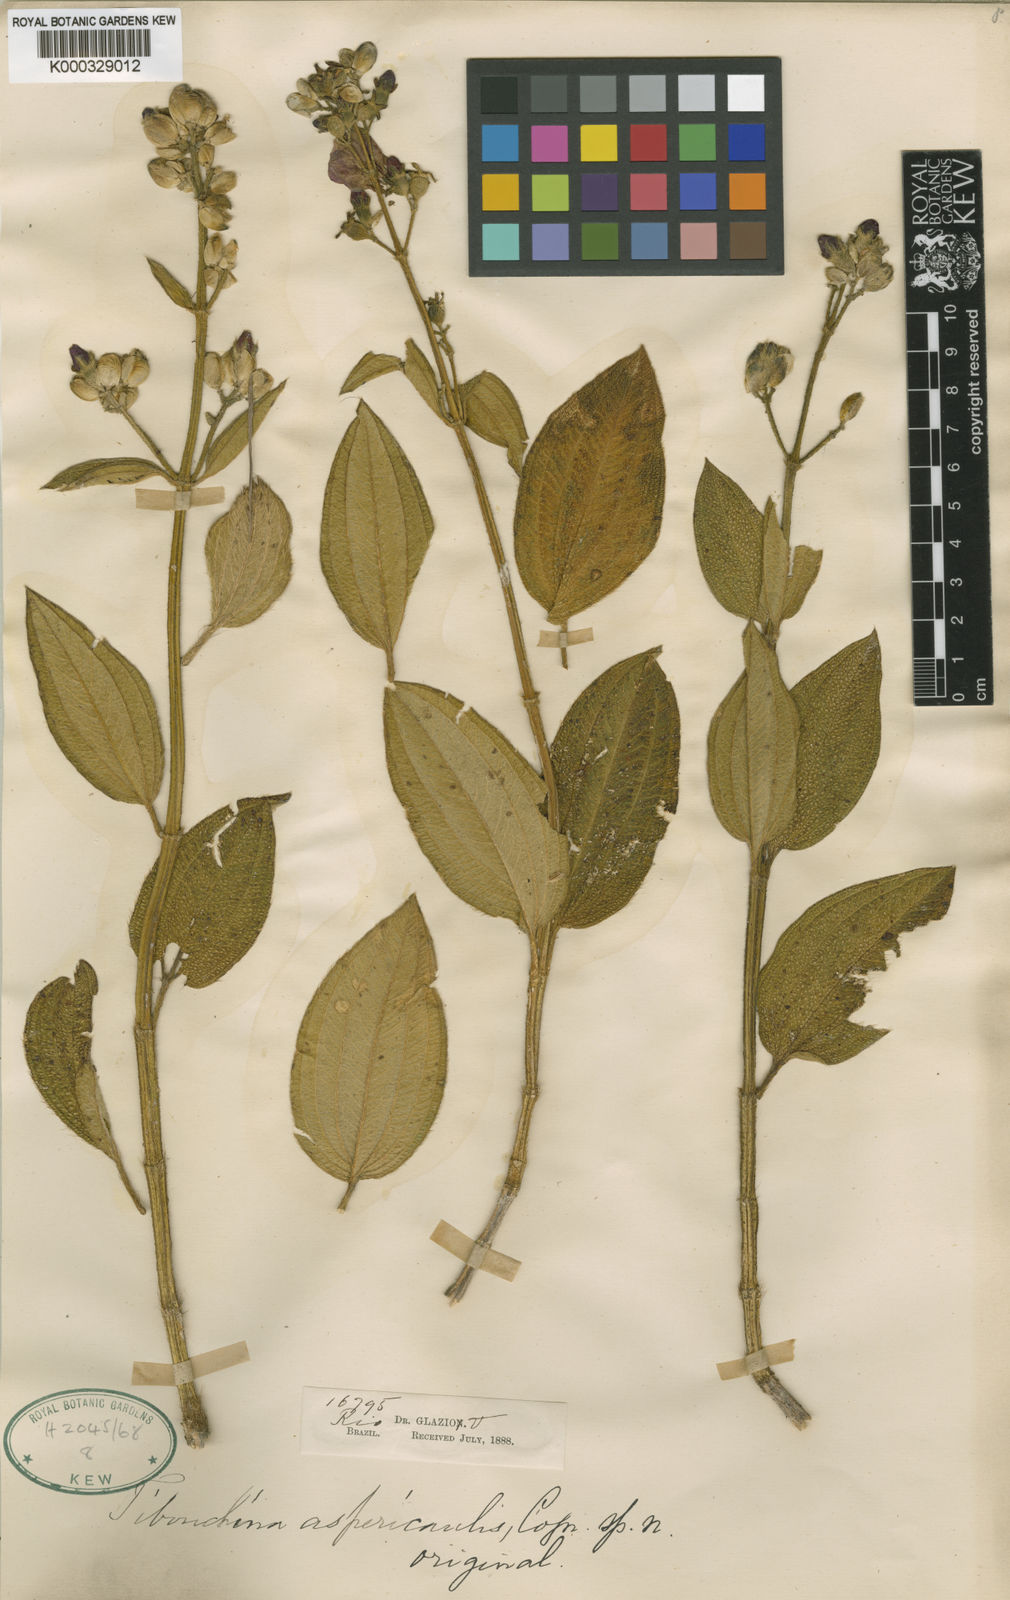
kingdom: Plantae
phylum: Tracheophyta
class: Magnoliopsida
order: Myrtales
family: Melastomataceae
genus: Pleroma
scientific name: Pleroma virgatum
